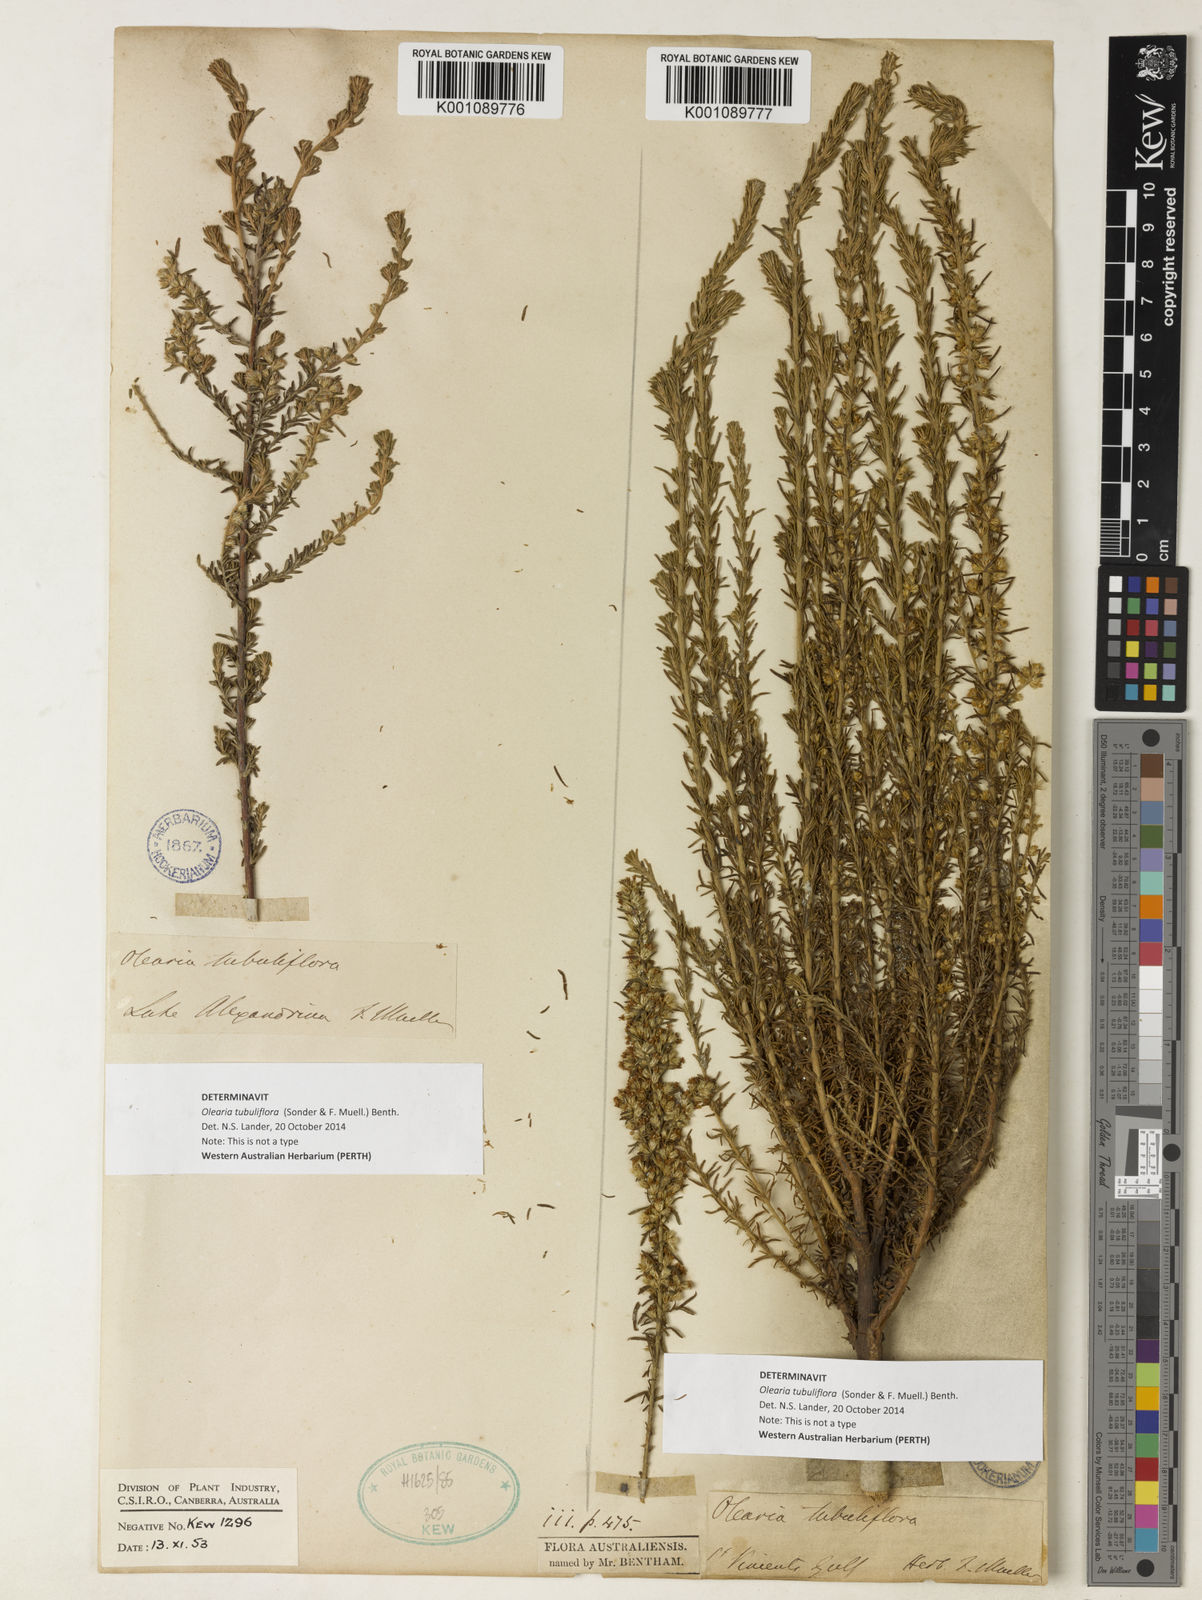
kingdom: Plantae
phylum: Tracheophyta
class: Magnoliopsida
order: Asterales
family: Asteraceae
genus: Olearia
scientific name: Olearia tubuliflora
